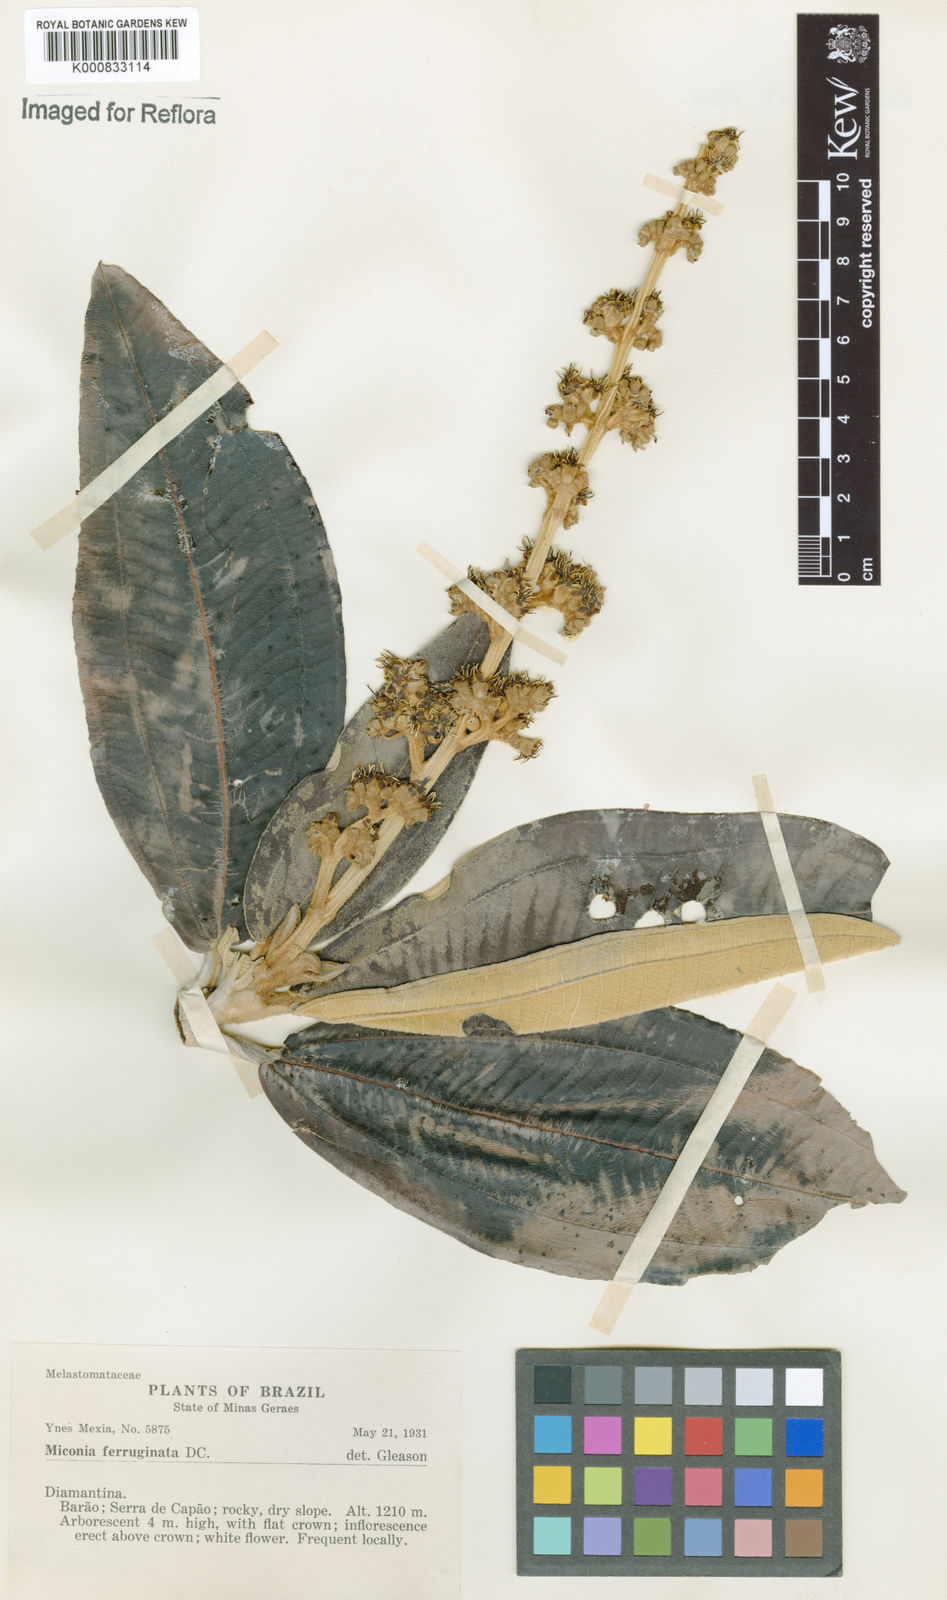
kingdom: Plantae
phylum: Tracheophyta
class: Magnoliopsida
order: Myrtales
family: Melastomataceae
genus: Miconia
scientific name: Miconia ferruginata
